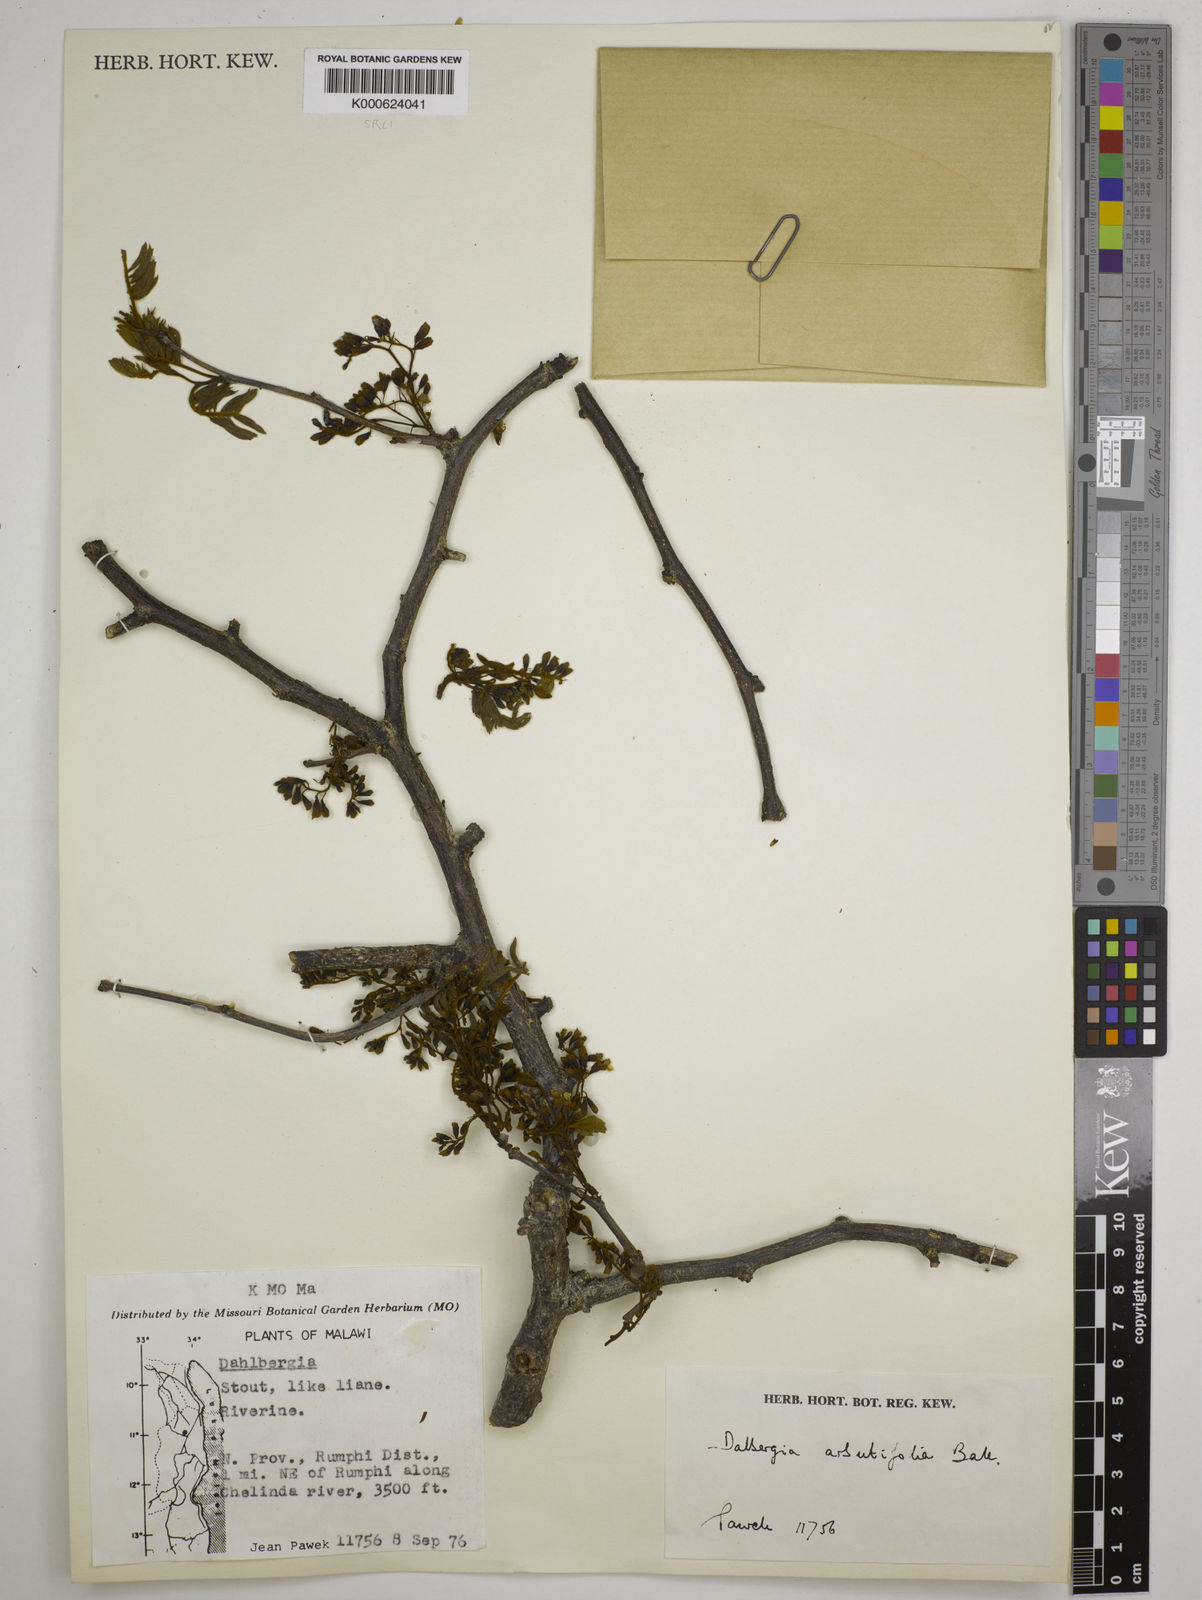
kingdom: Plantae
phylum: Tracheophyta
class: Magnoliopsida
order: Fabales
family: Fabaceae
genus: Dalbergia
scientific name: Dalbergia arbutifolia
